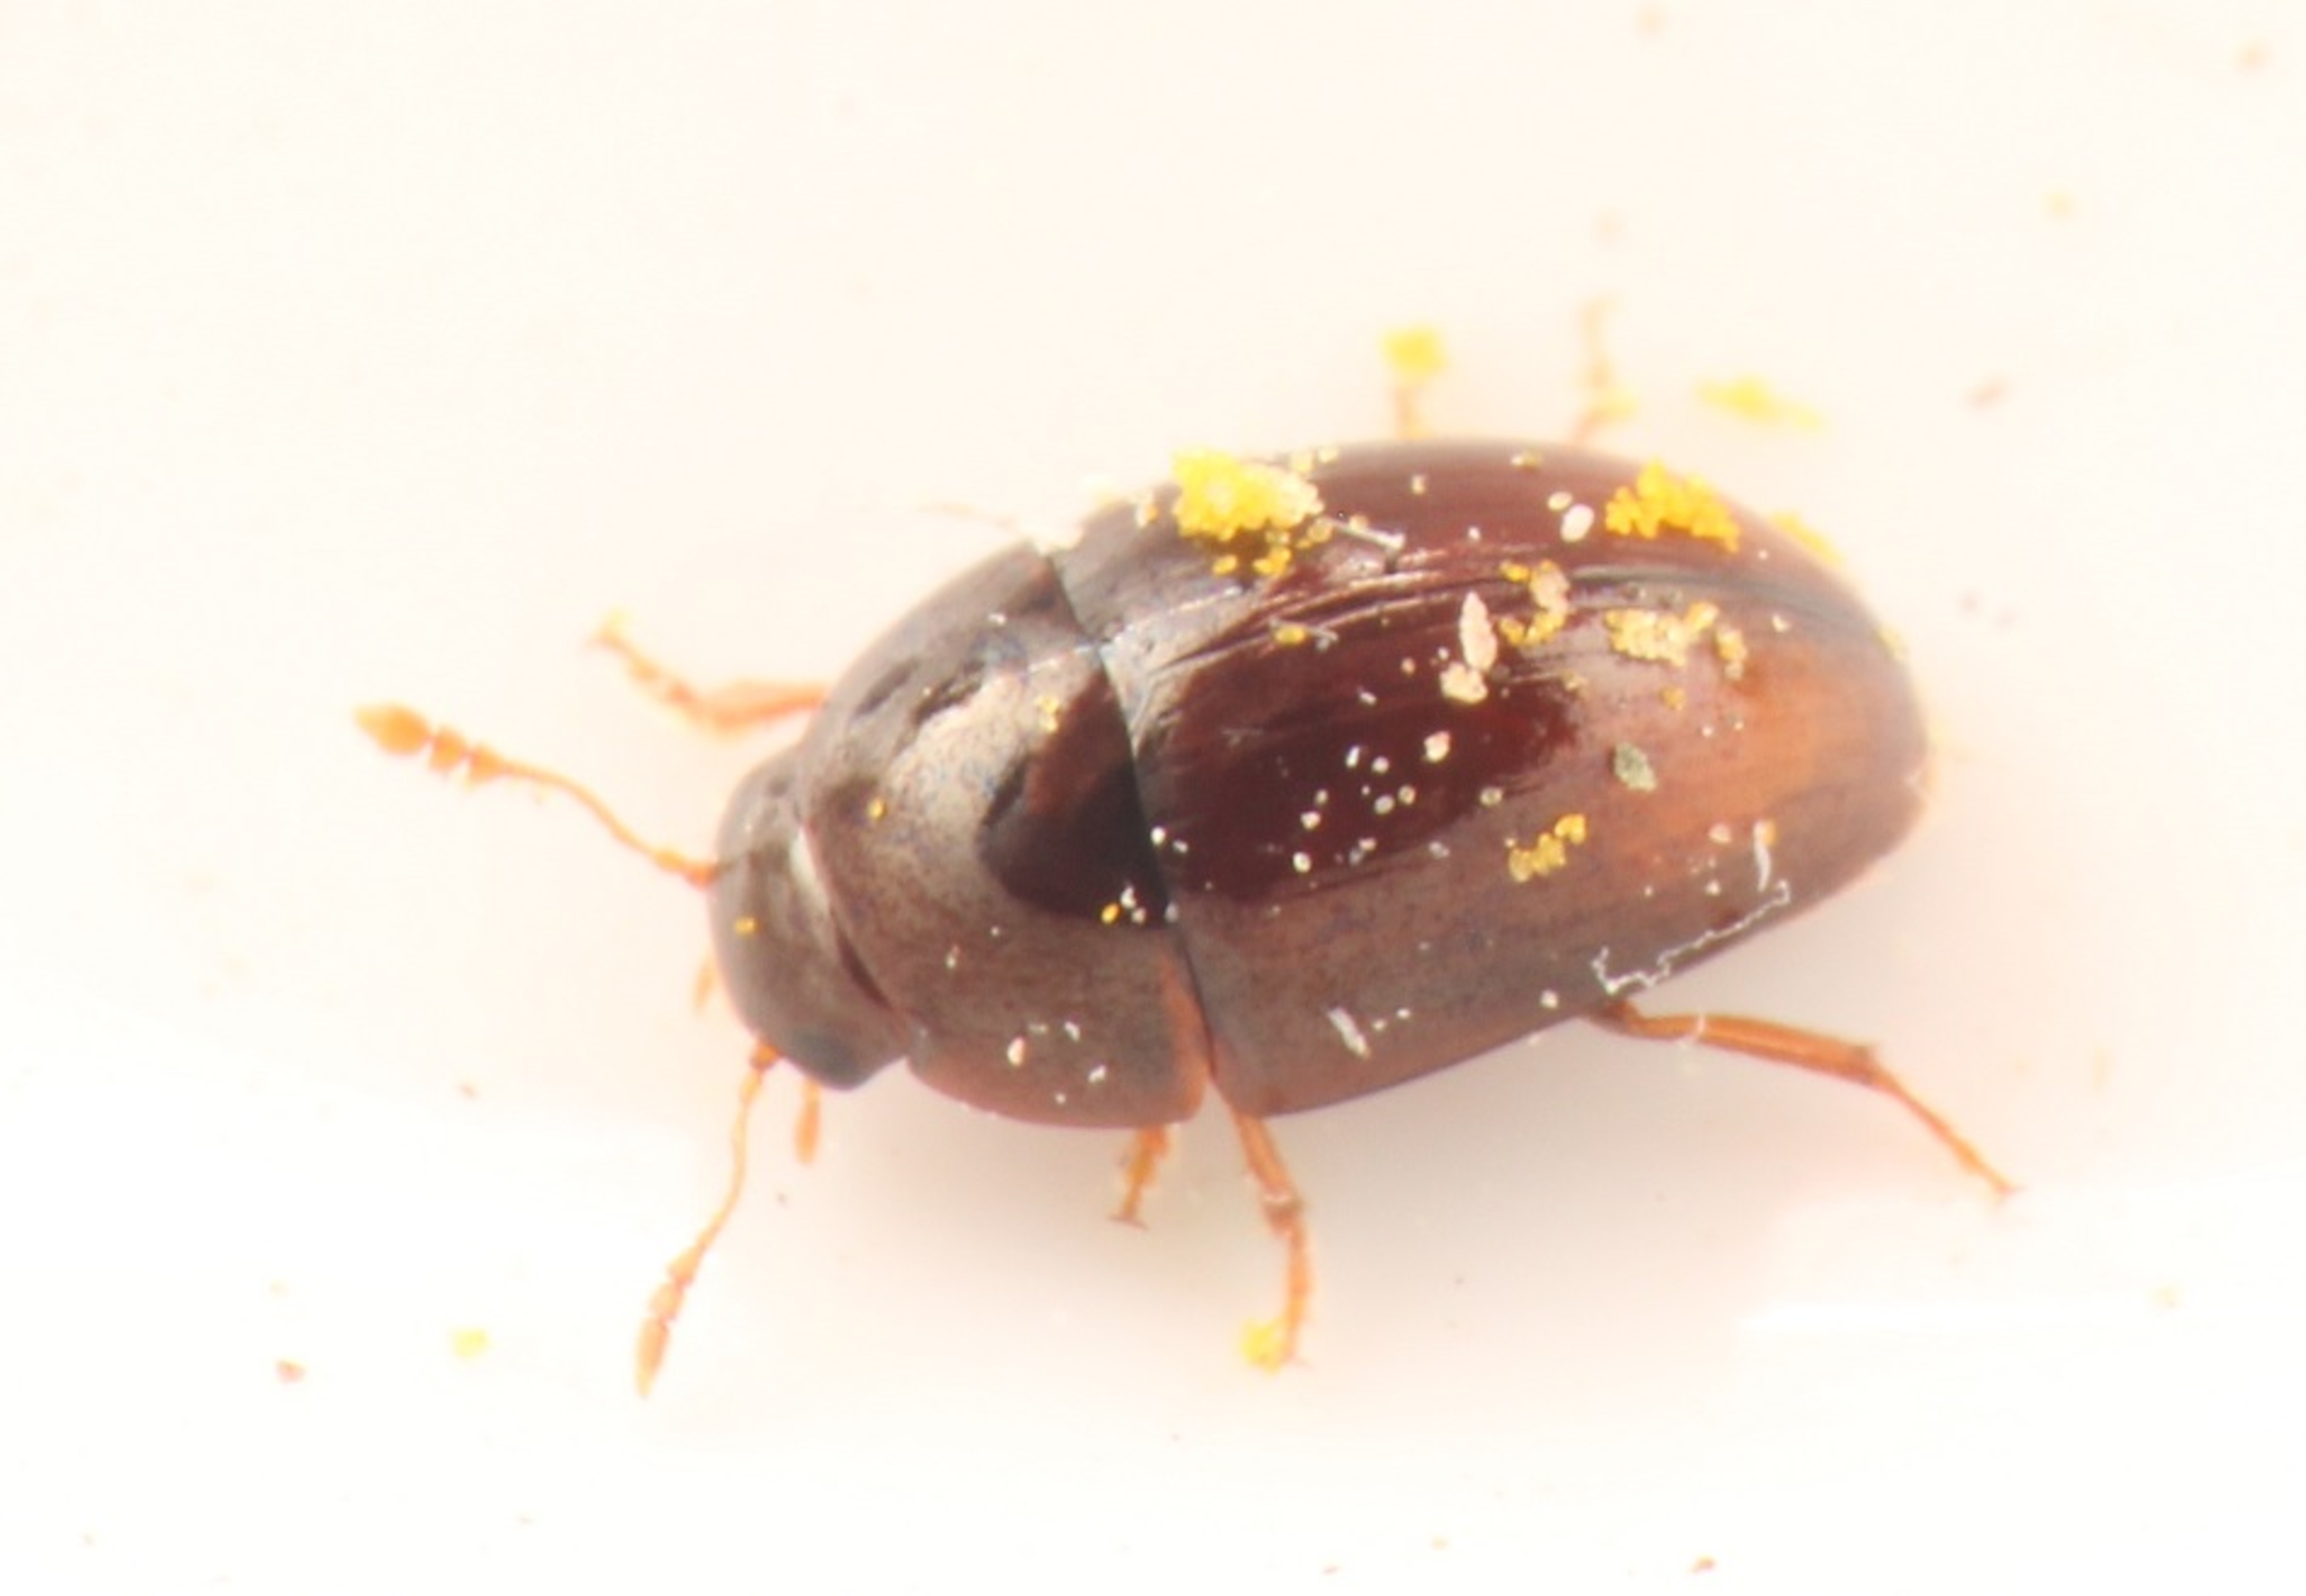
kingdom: Animalia
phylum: Arthropoda
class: Insecta
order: Coleoptera
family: Phalacridae
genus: Olibrus
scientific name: Olibrus affinis
